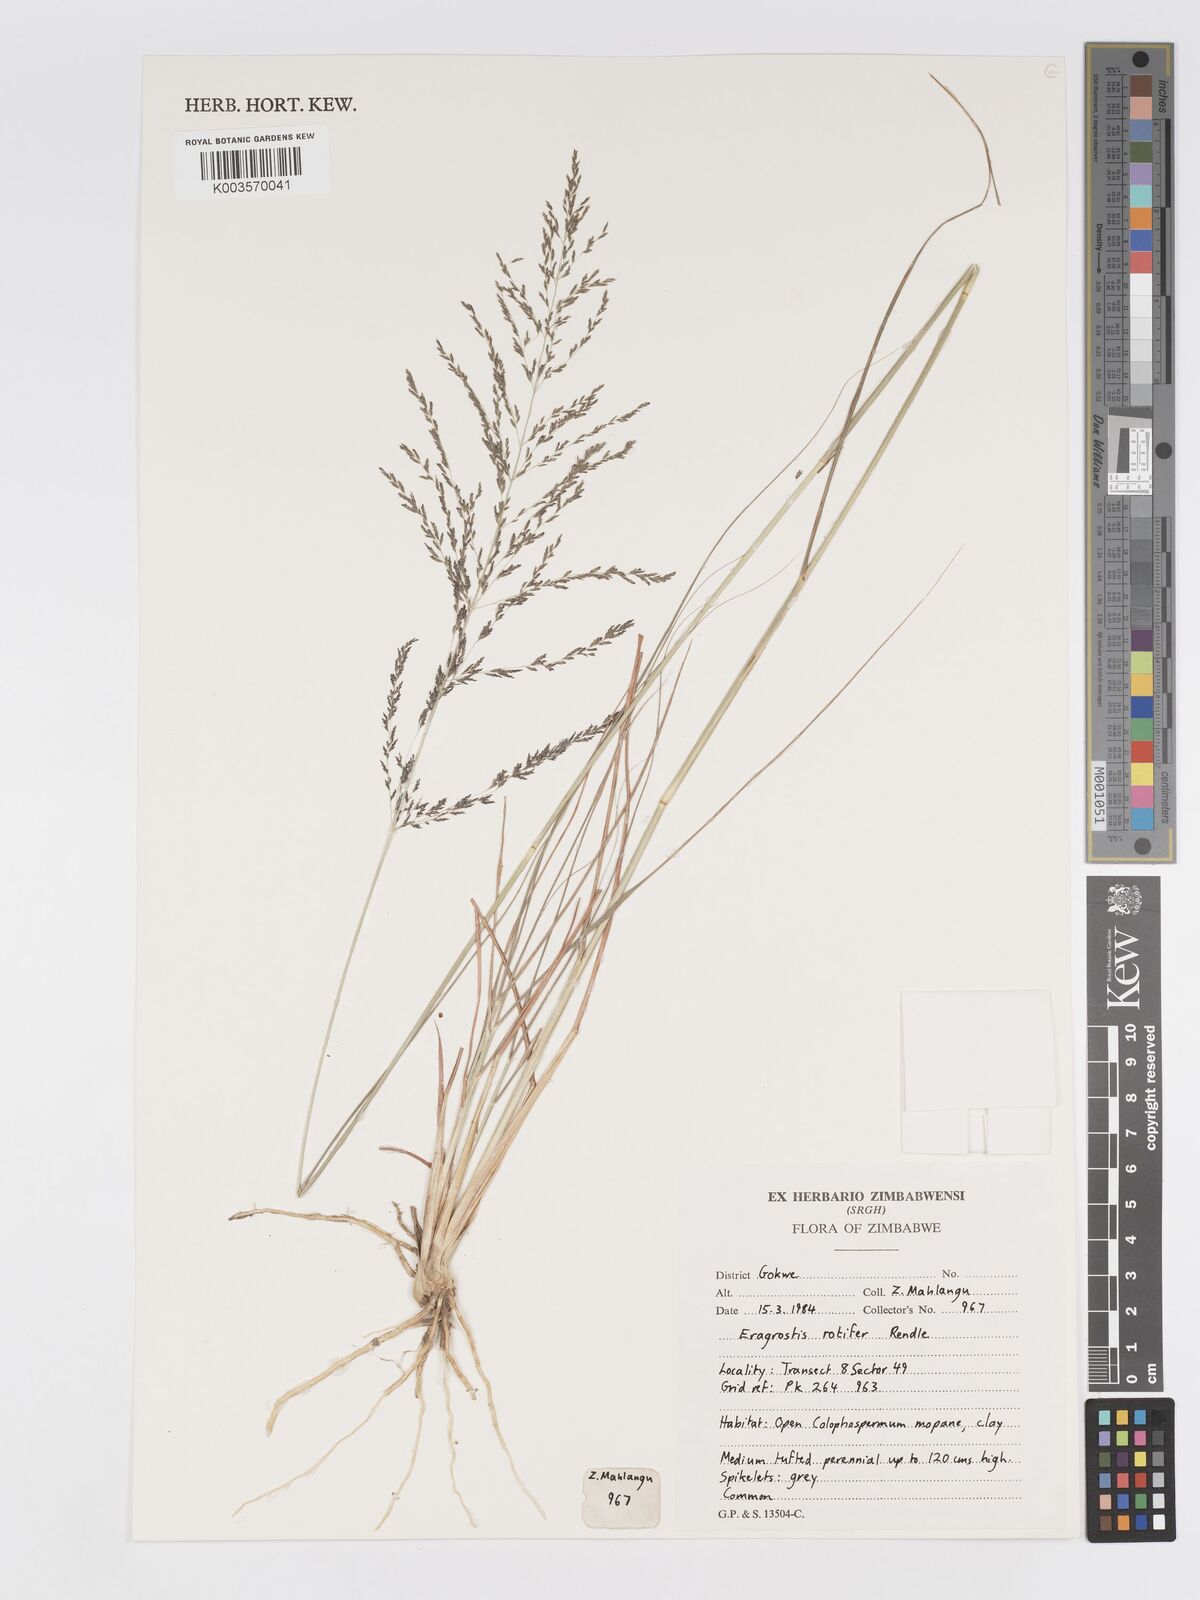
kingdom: Plantae
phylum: Tracheophyta
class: Liliopsida
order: Poales
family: Poaceae
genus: Eragrostis
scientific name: Eragrostis rotifer
